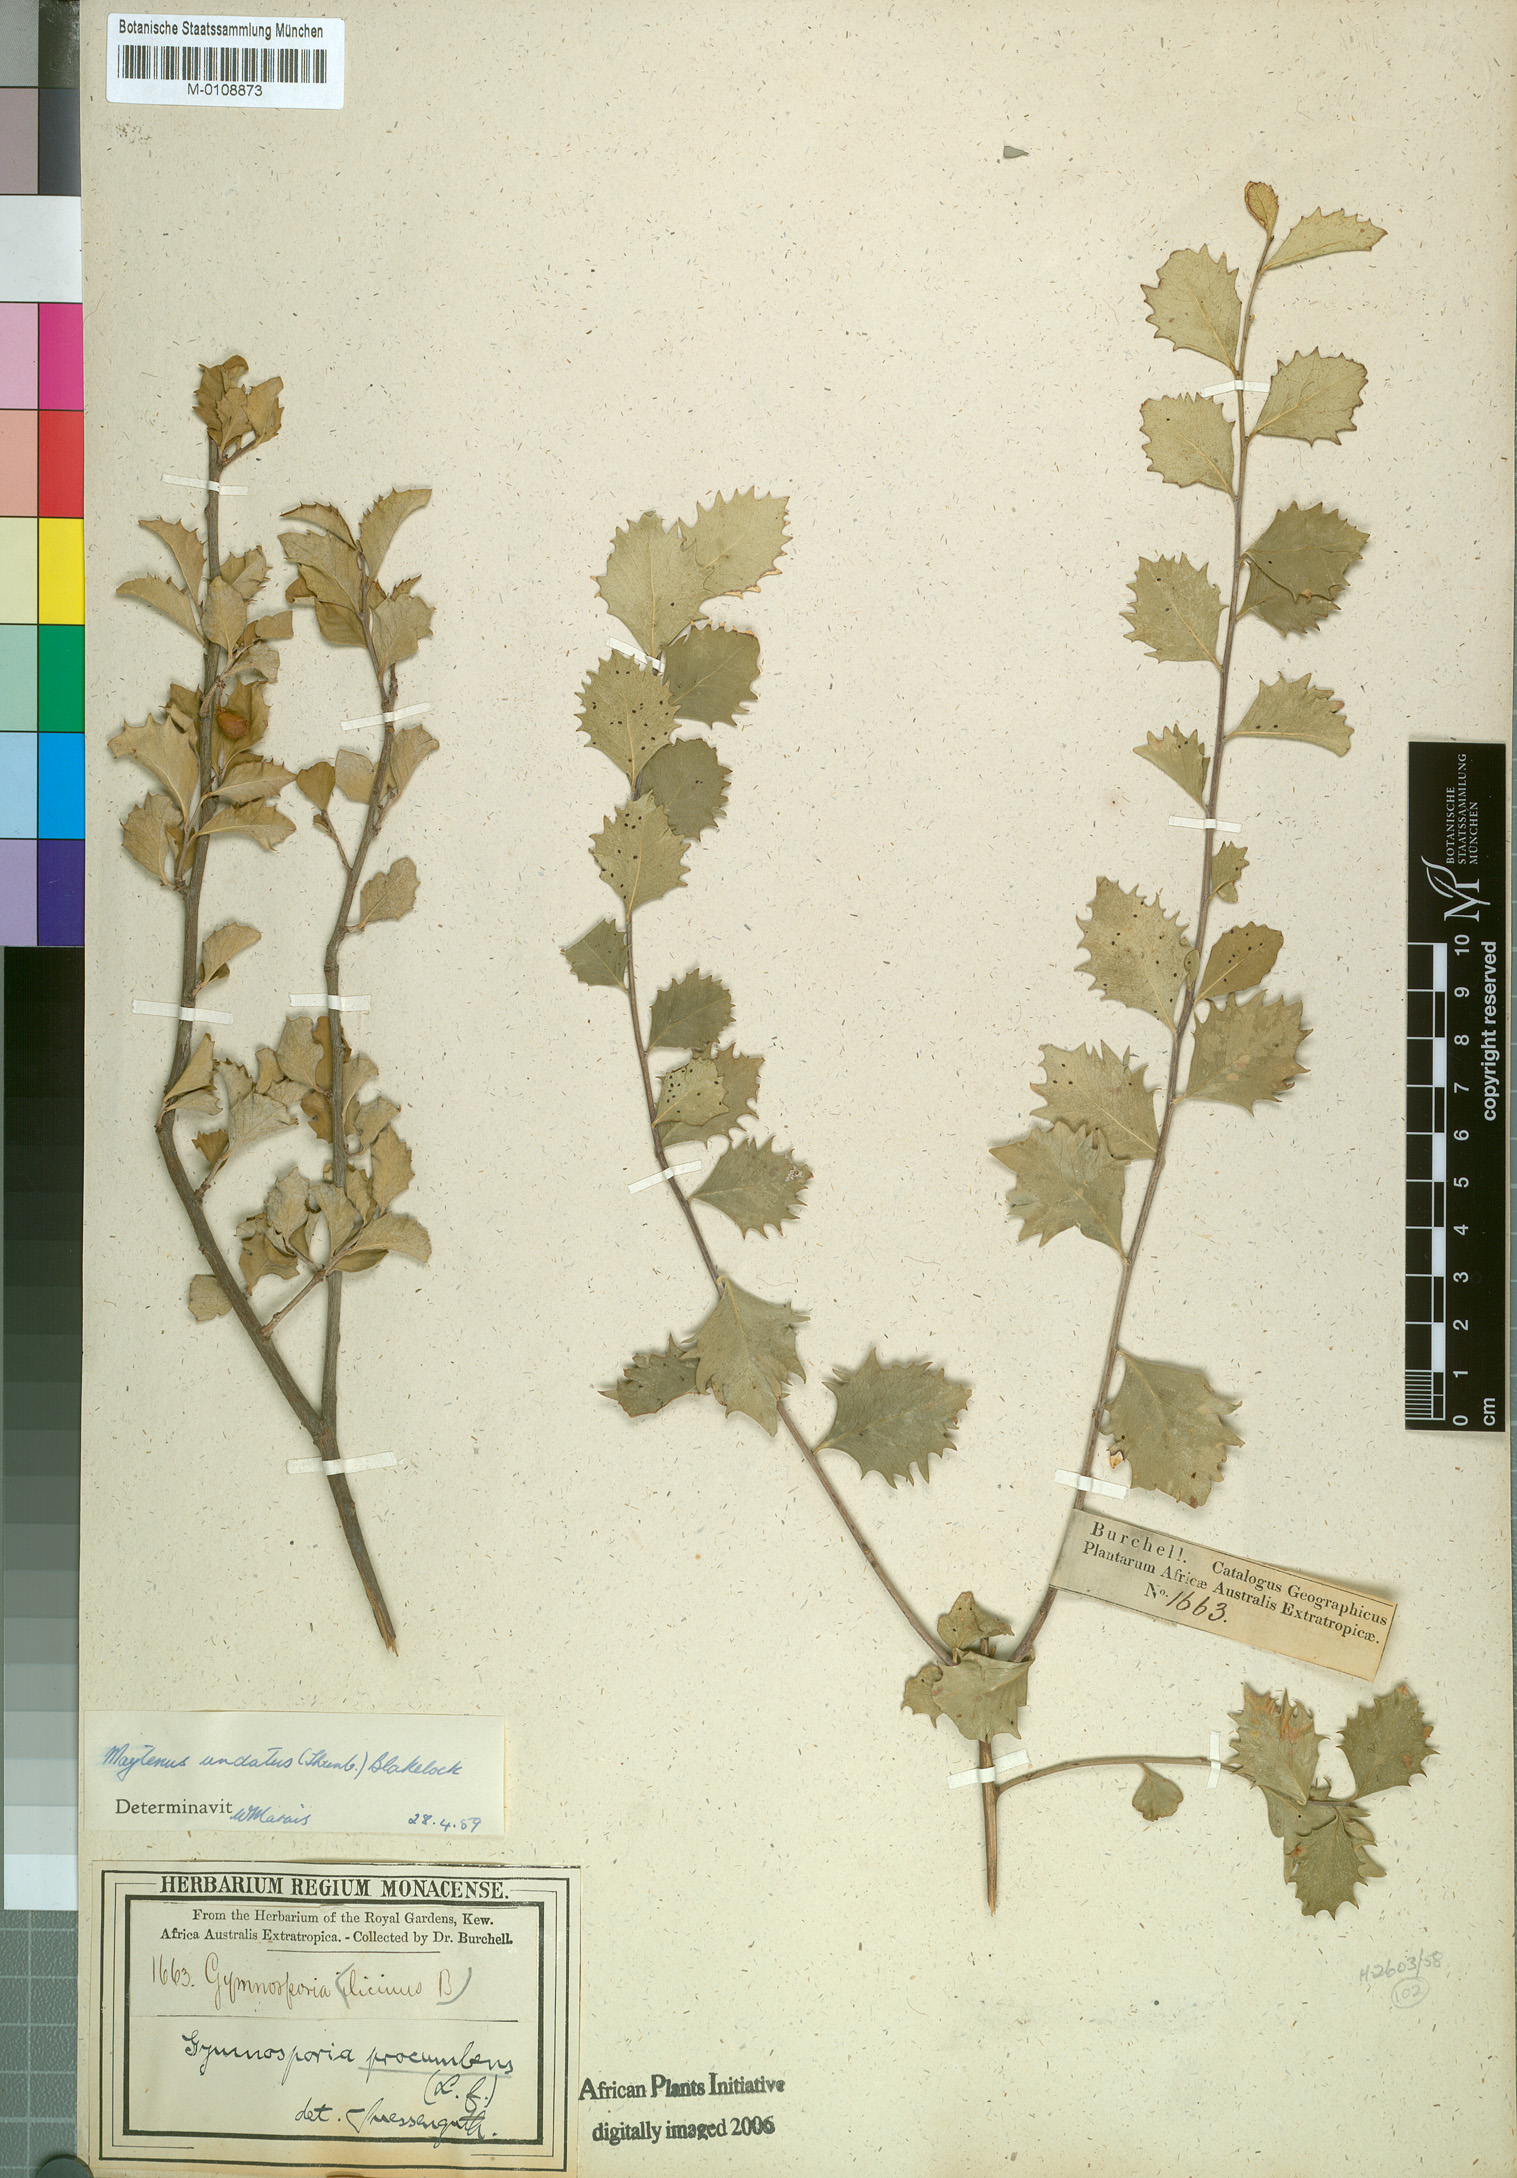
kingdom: Plantae
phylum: Tracheophyta
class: Magnoliopsida
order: Celastrales
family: Celastraceae
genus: Gymnosporia
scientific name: Gymnosporia undata
